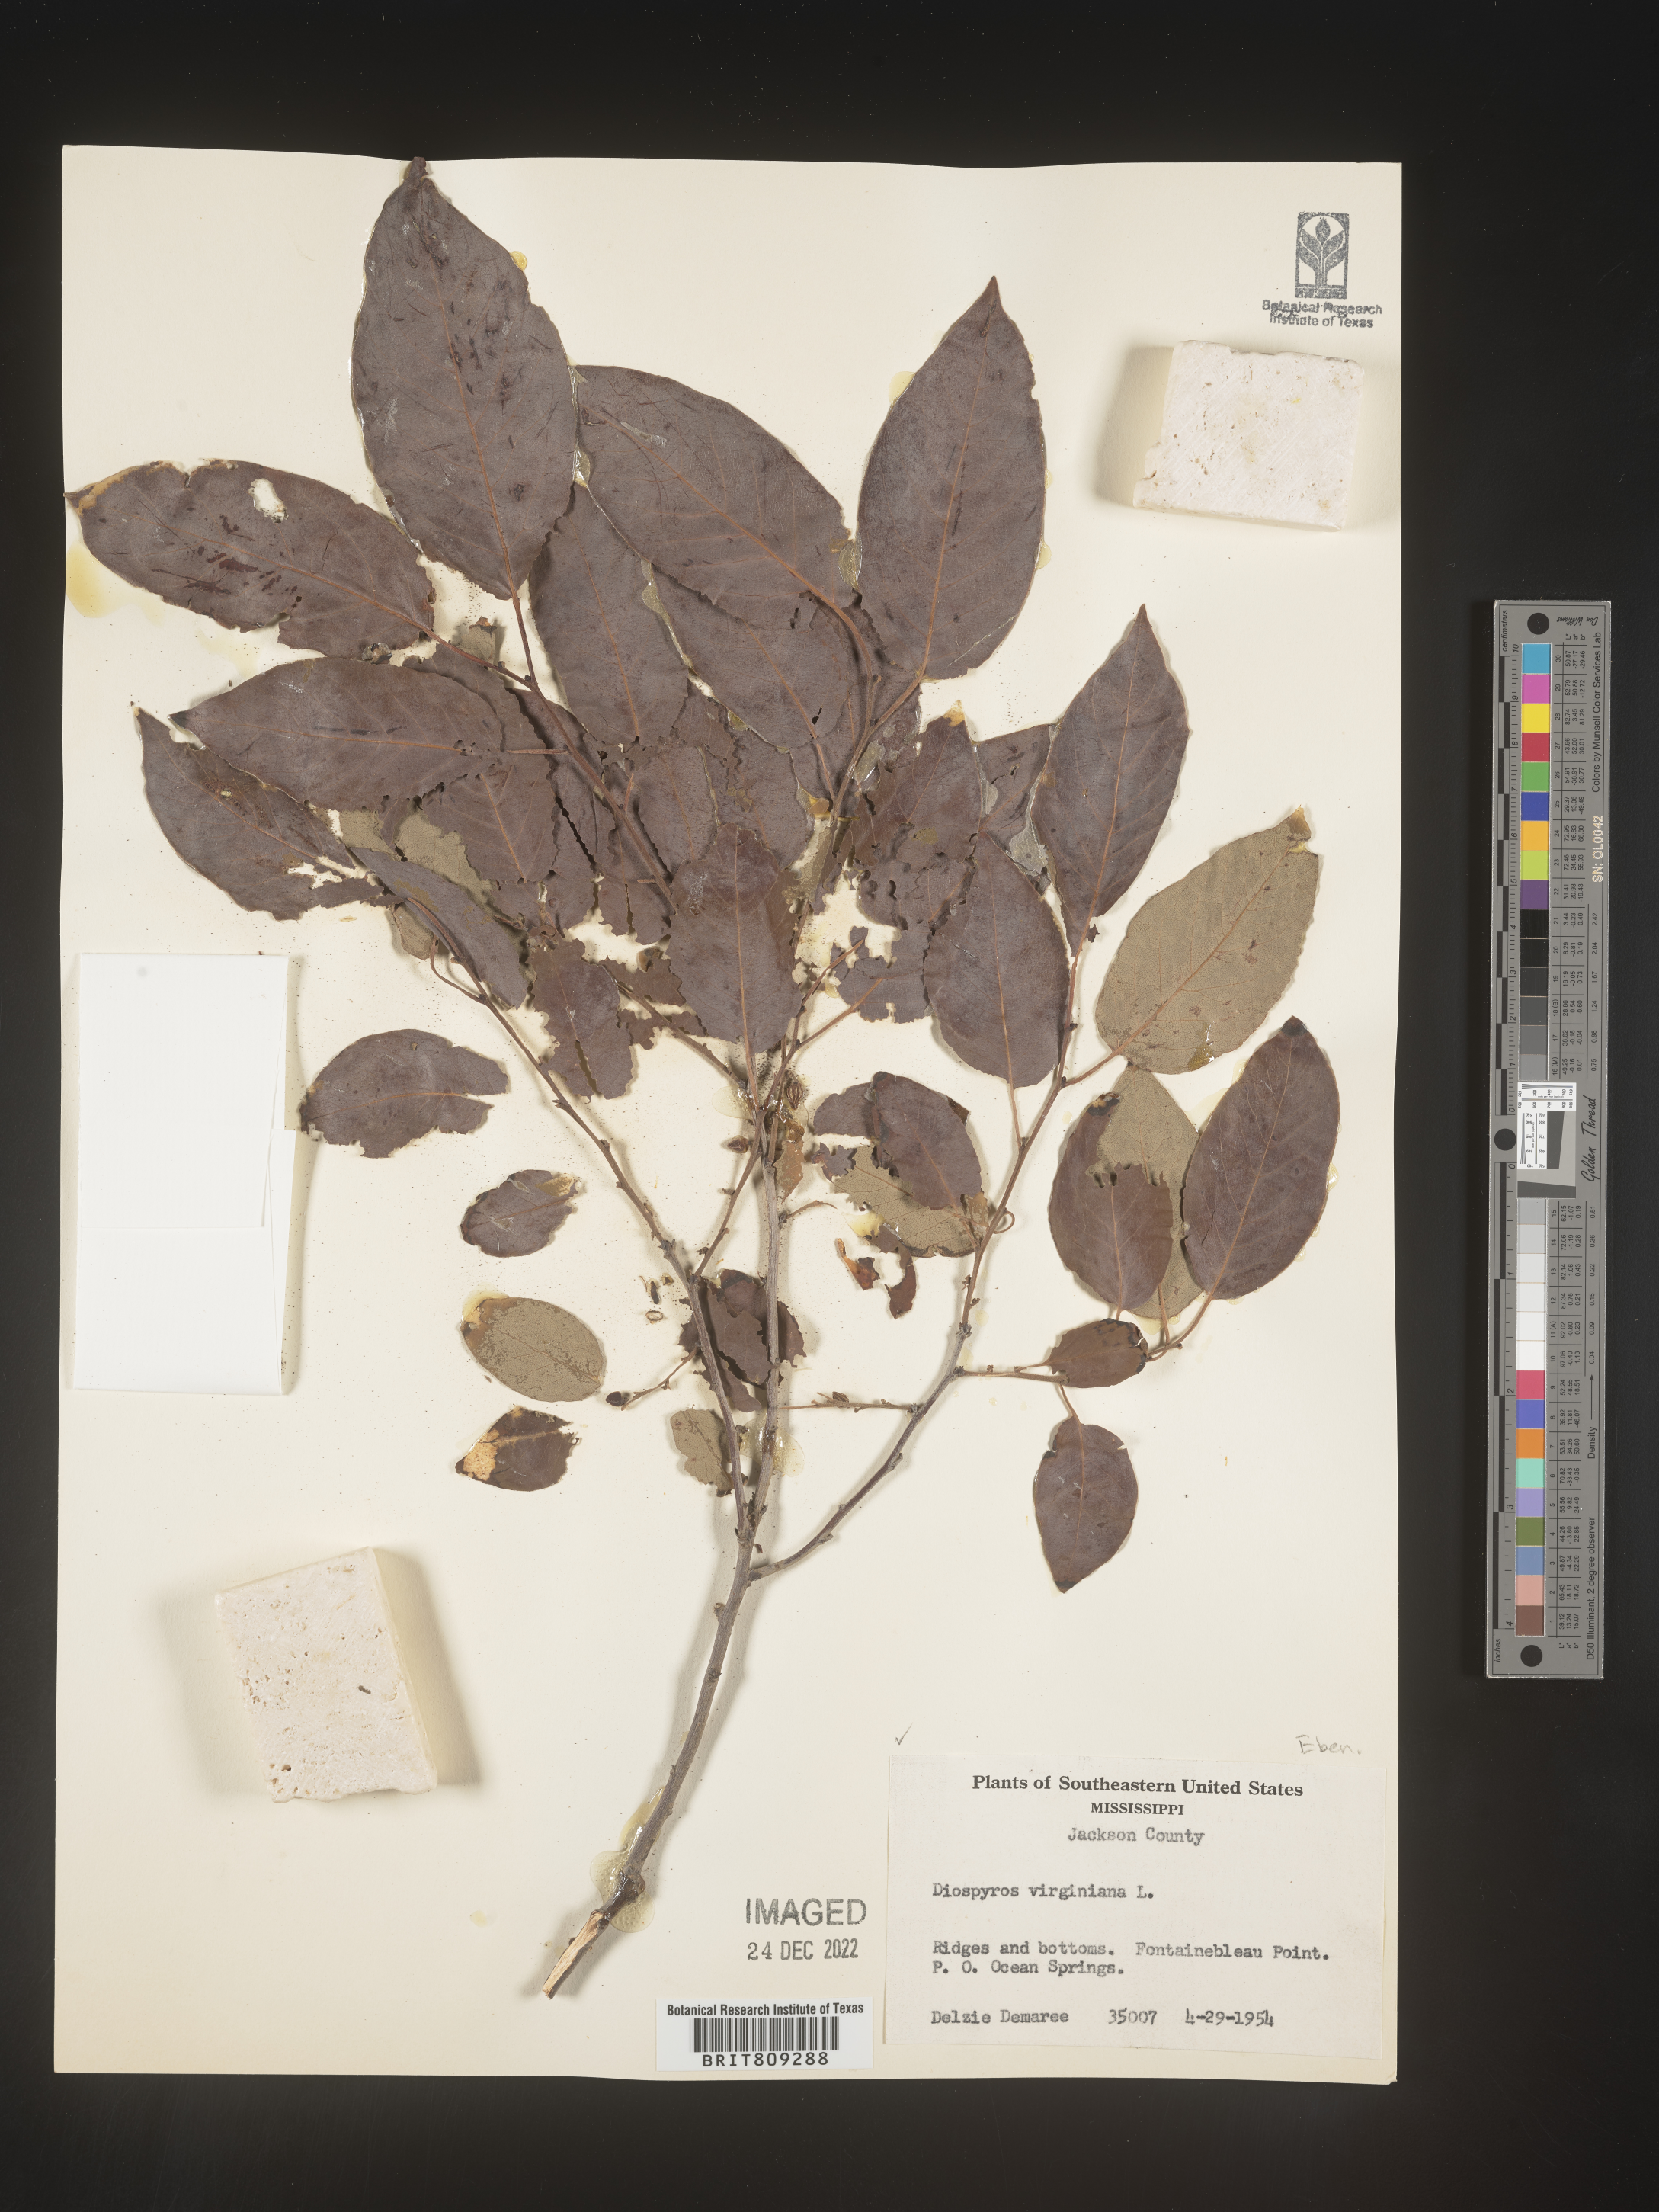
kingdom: Plantae
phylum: Tracheophyta
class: Magnoliopsida
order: Ericales
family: Ebenaceae
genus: Diospyros
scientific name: Diospyros virginiana
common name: Persimmon
